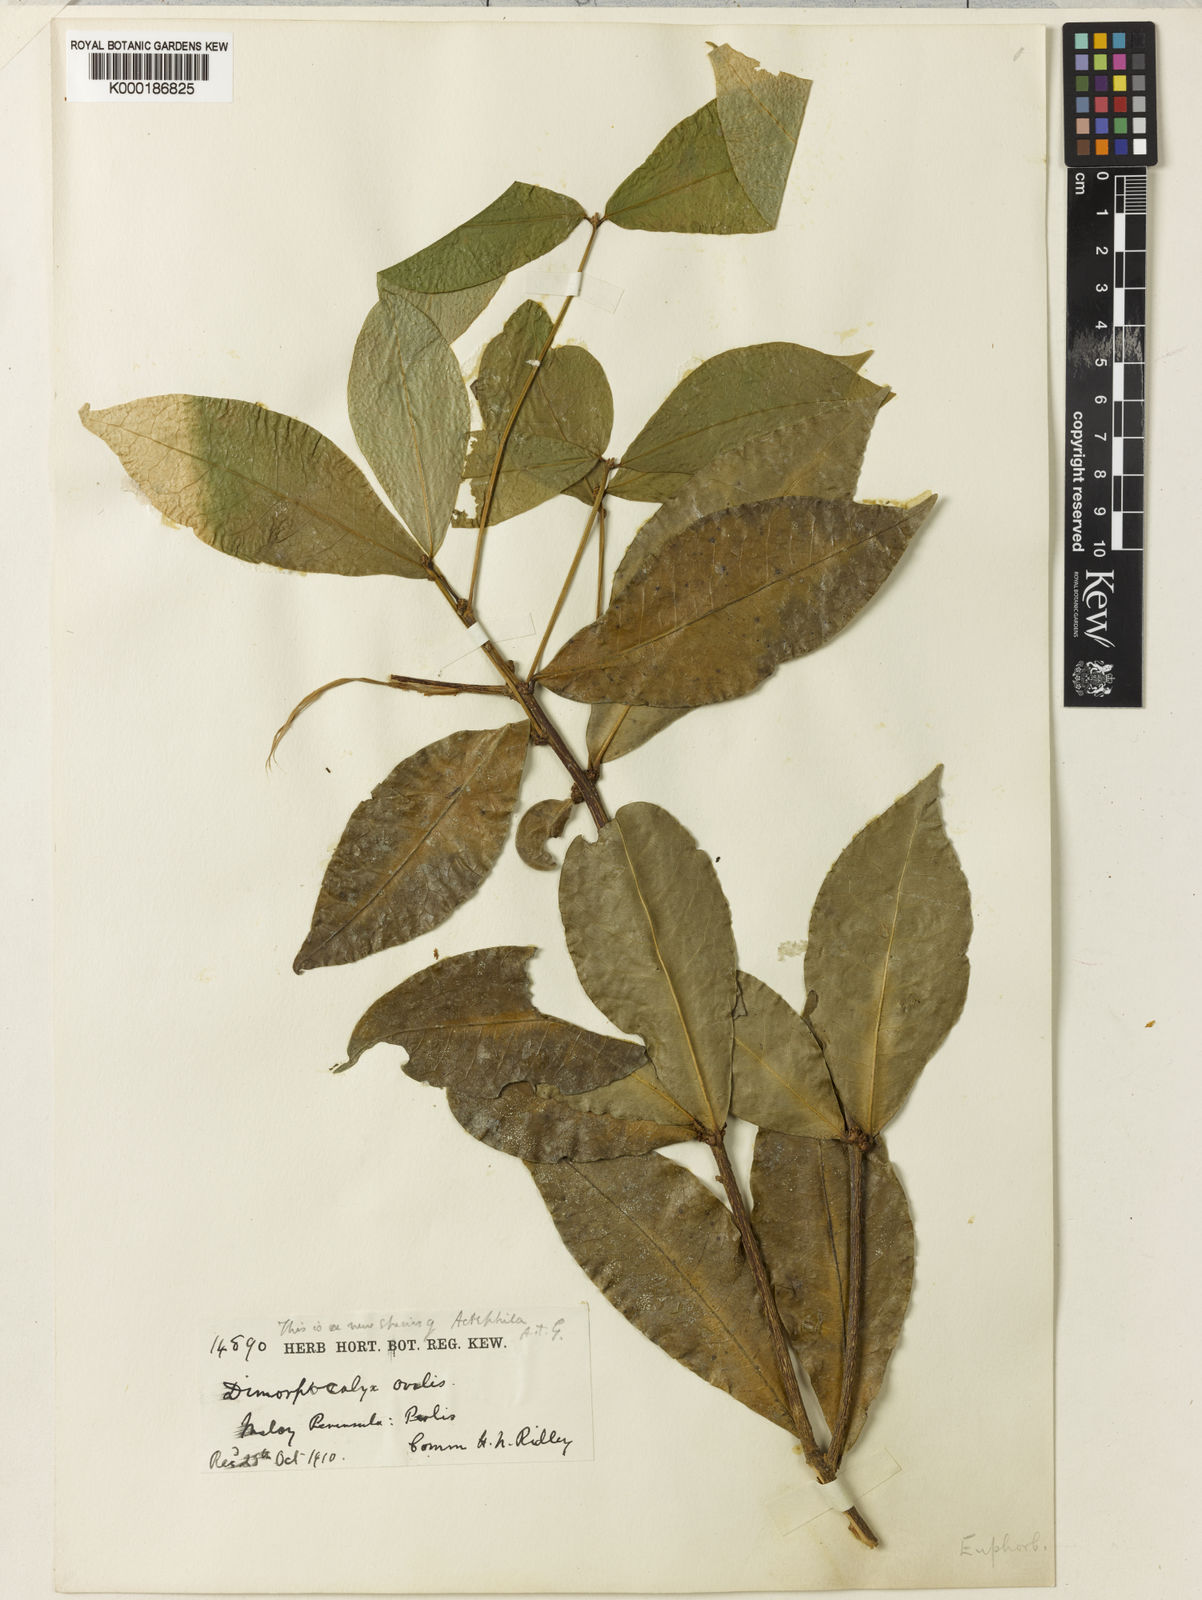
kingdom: Plantae
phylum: Tracheophyta
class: Magnoliopsida
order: Malpighiales
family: Phyllanthaceae
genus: Actephila
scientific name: Actephila ovalis
